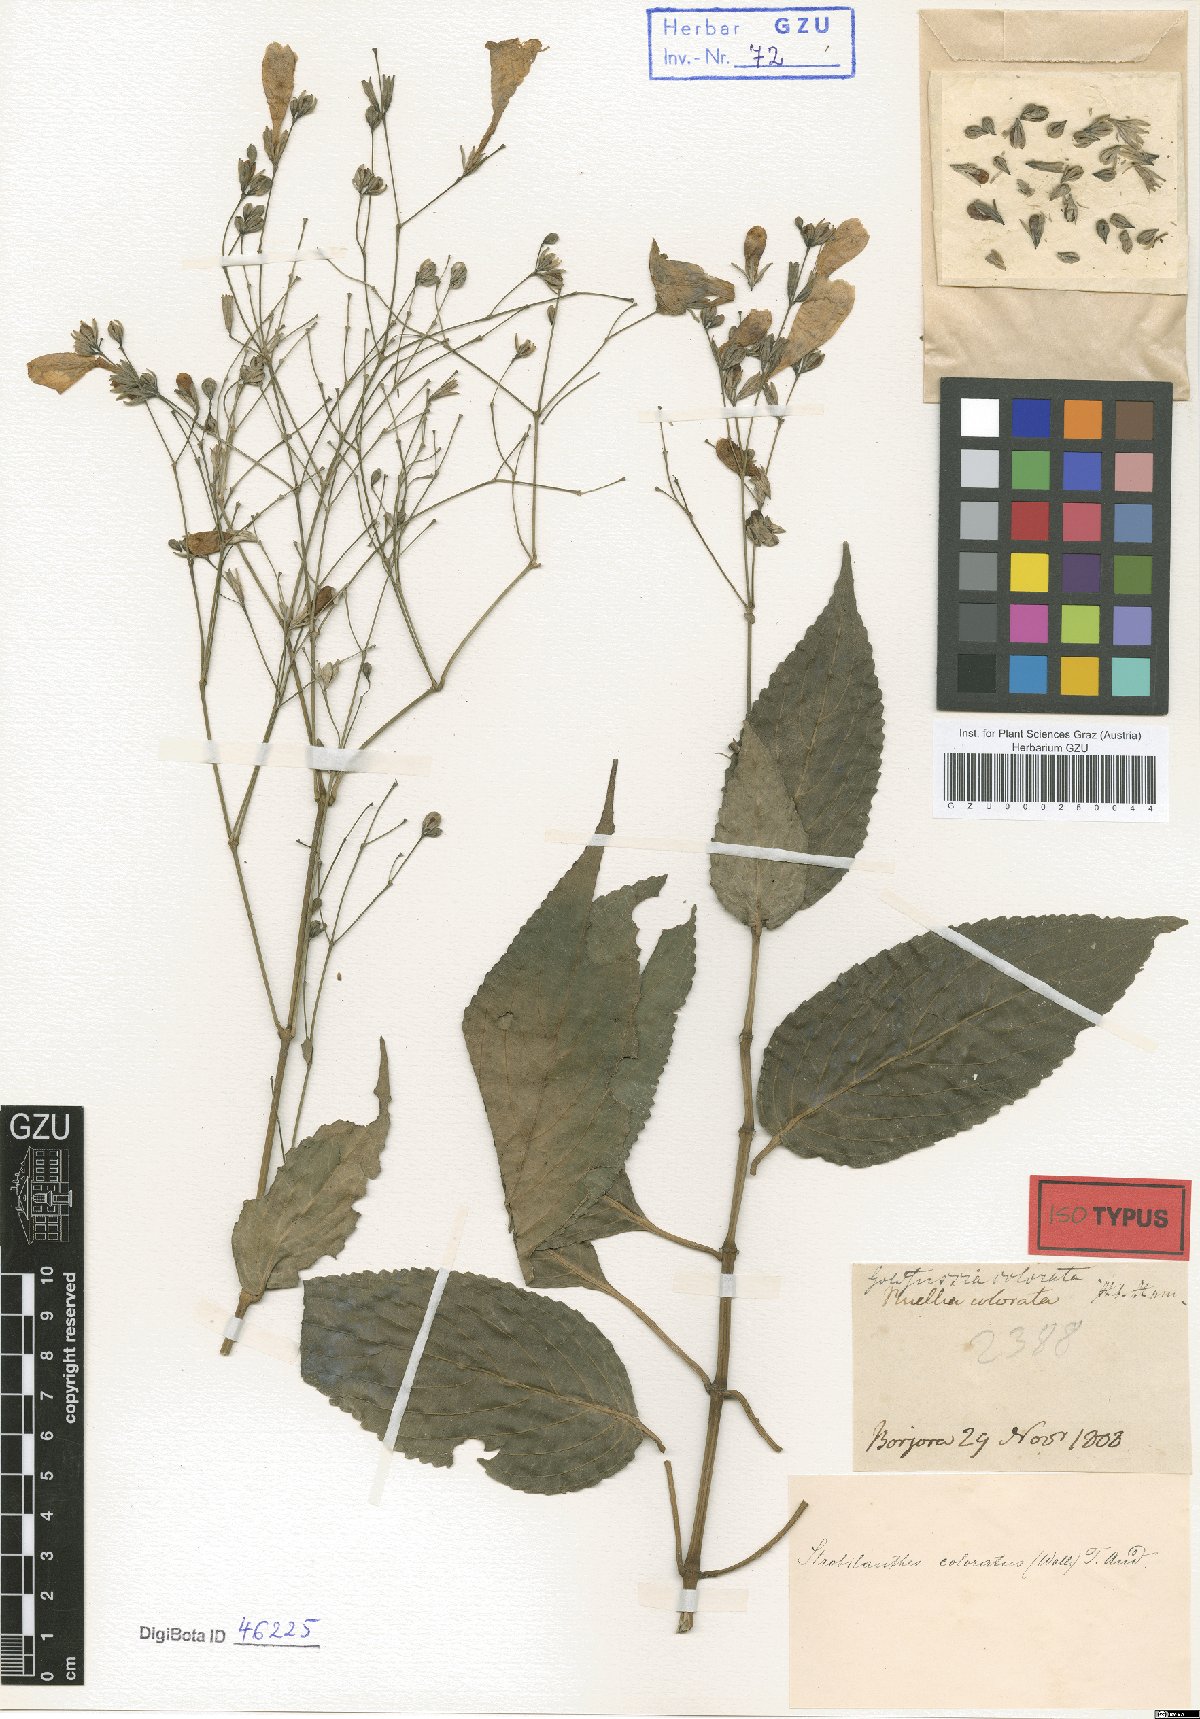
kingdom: Plantae
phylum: Tracheophyta
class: Magnoliopsida
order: Lamiales
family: Acanthaceae
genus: Strobilanthes
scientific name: Strobilanthes hamiltoniana
